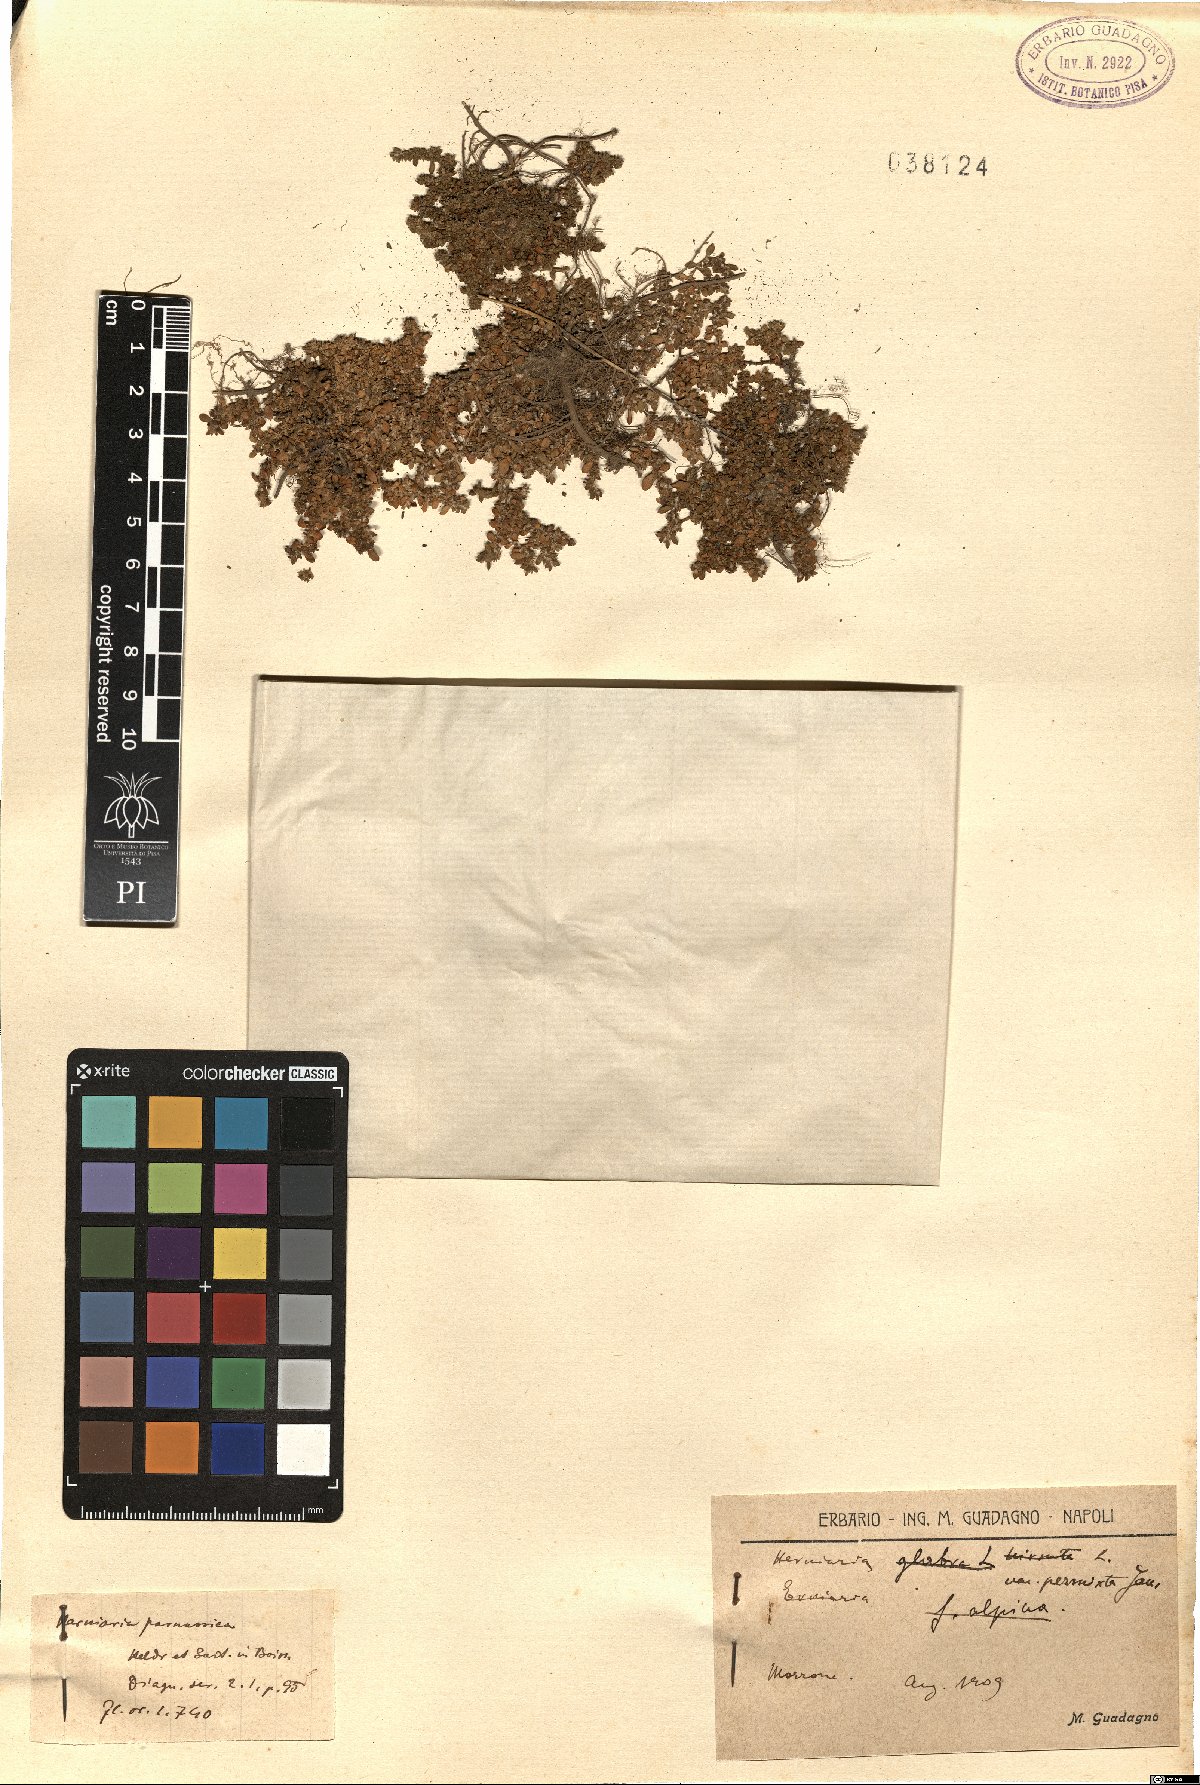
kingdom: Plantae
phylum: Tracheophyta
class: Magnoliopsida
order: Caryophyllales
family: Caryophyllaceae
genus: Herniaria
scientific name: Herniaria permixta
